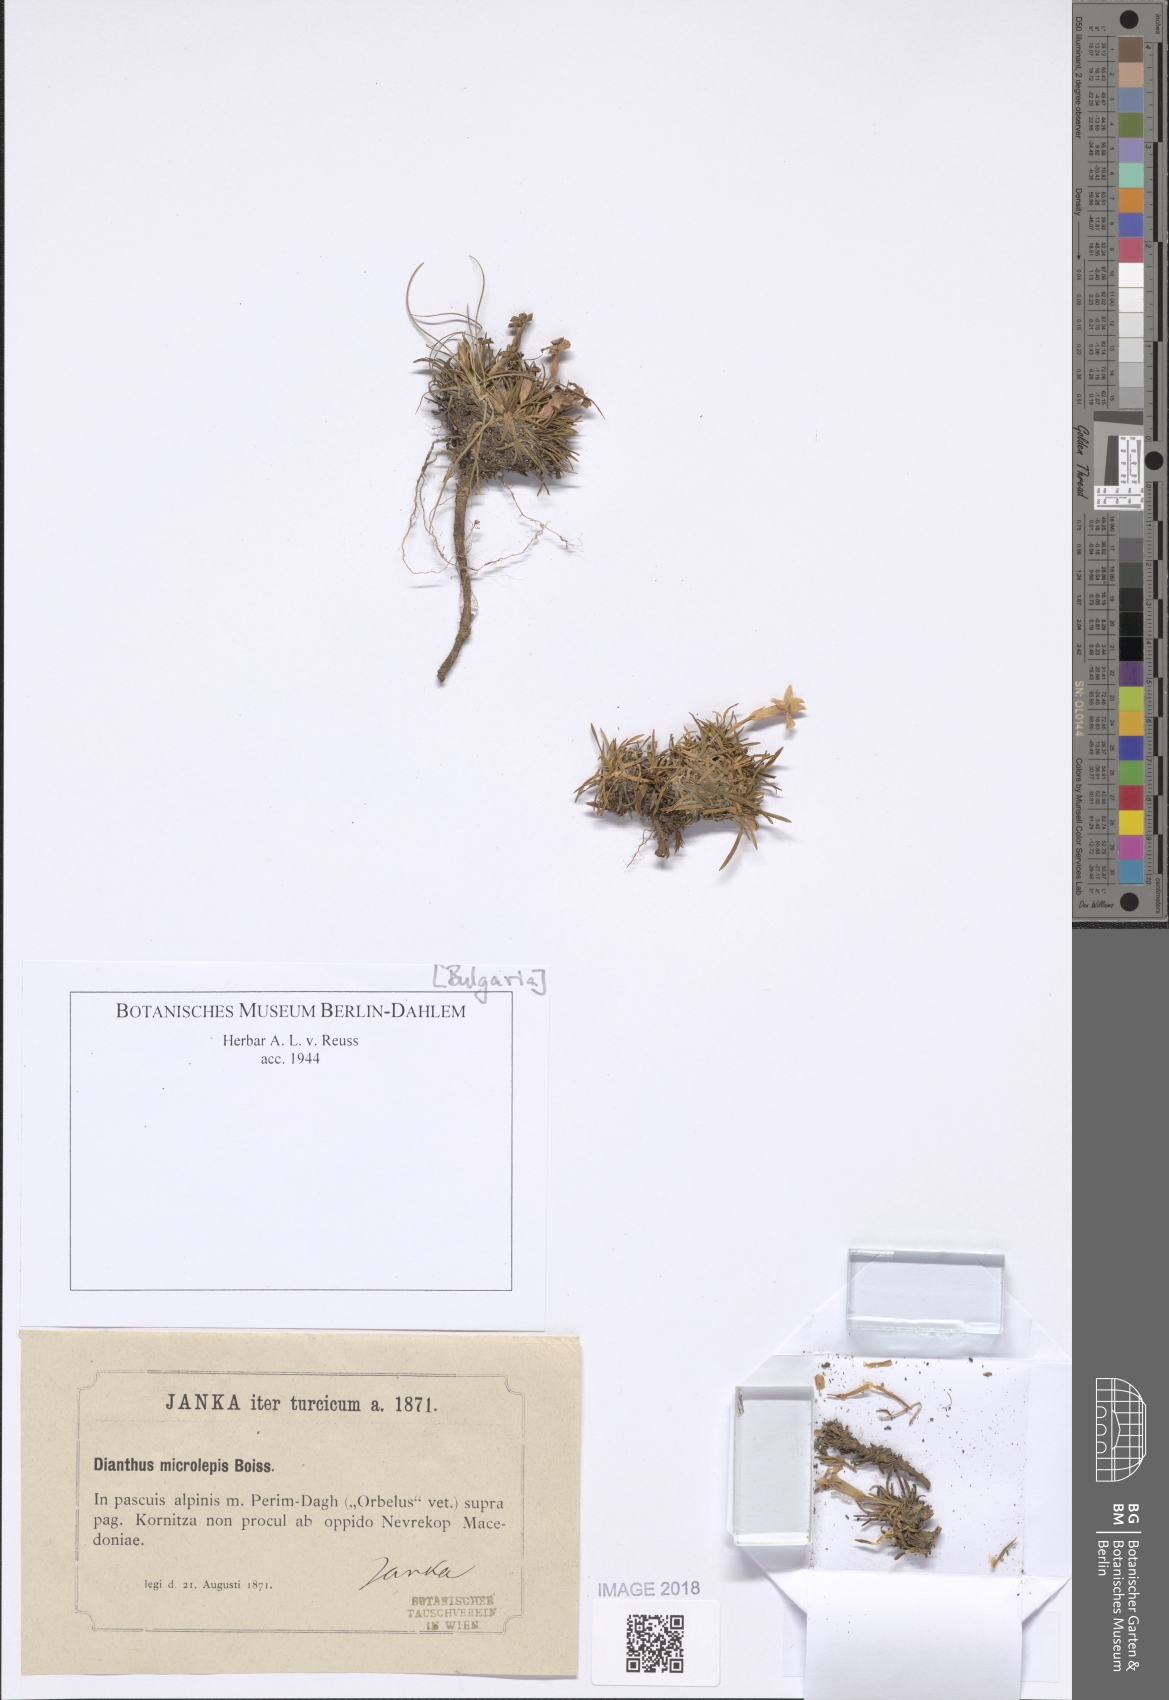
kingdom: Plantae
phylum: Tracheophyta
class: Magnoliopsida
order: Caryophyllales
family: Caryophyllaceae
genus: Dianthus
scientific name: Dianthus microlepis
